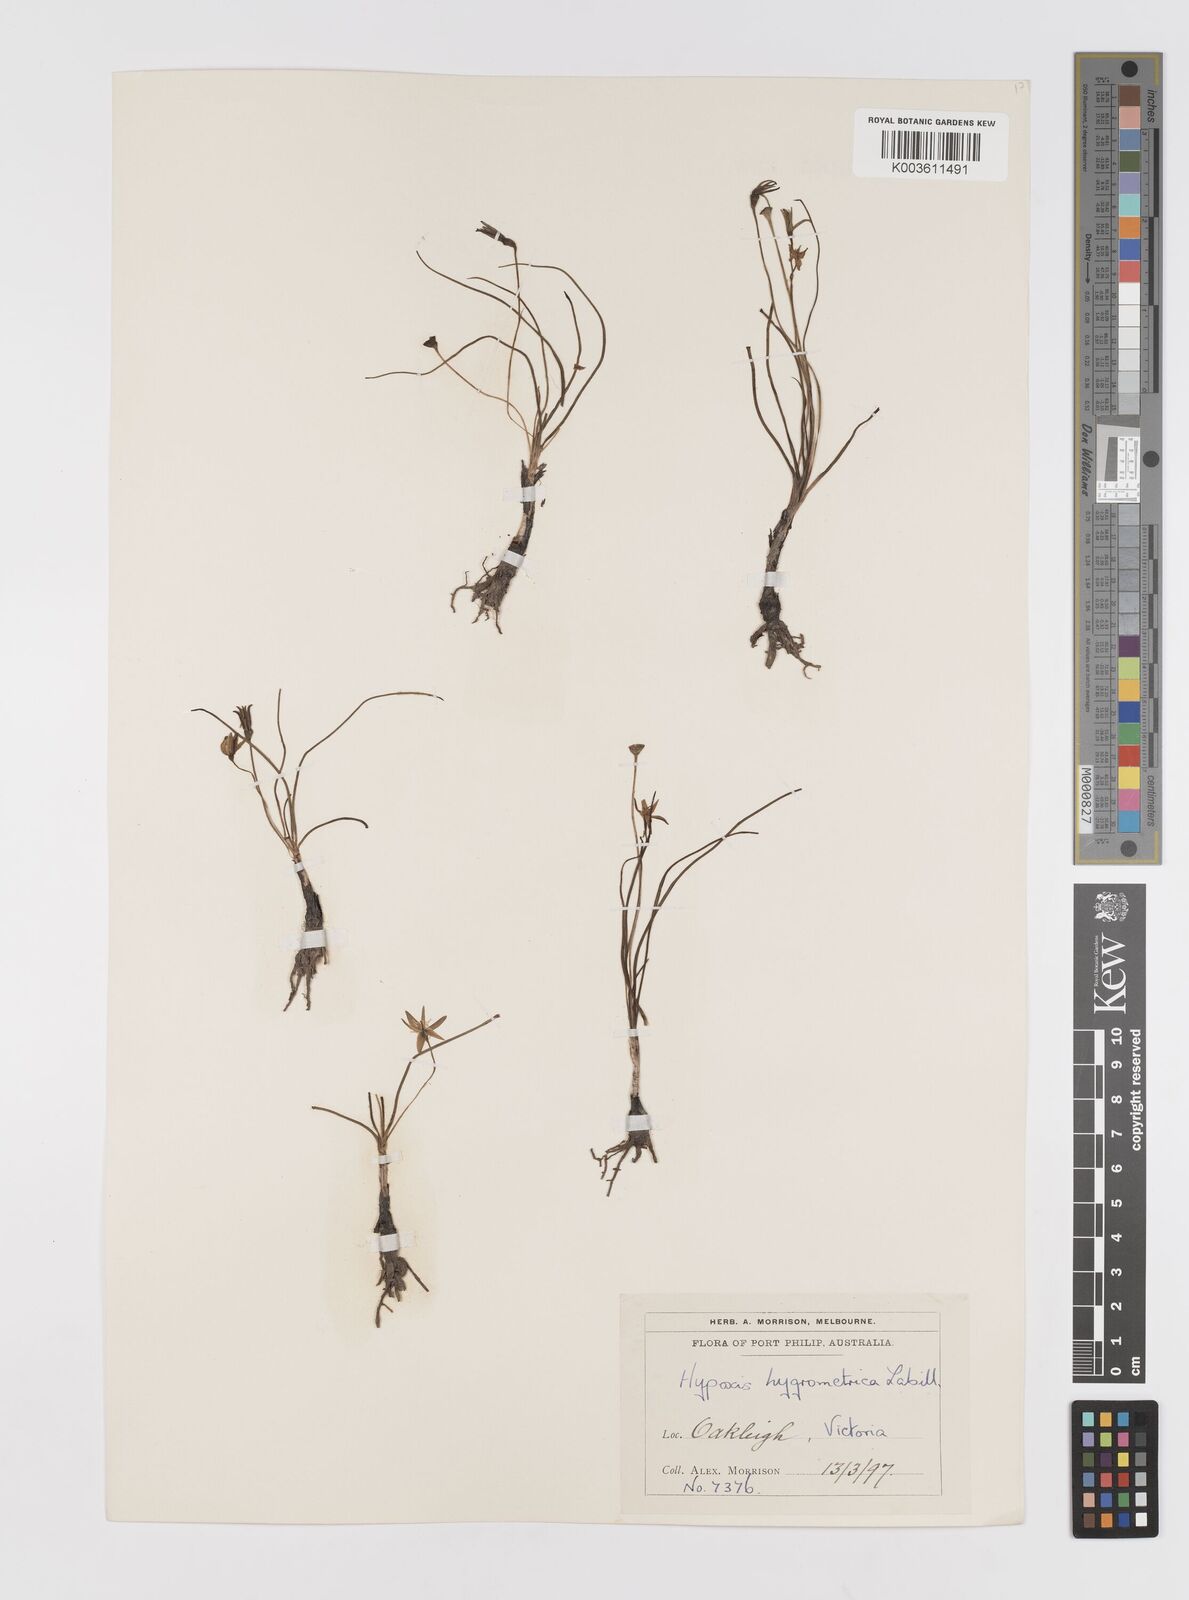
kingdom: Plantae
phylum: Tracheophyta
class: Liliopsida
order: Asparagales
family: Hypoxidaceae
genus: Hypoxis
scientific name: Hypoxis hygrometrica
